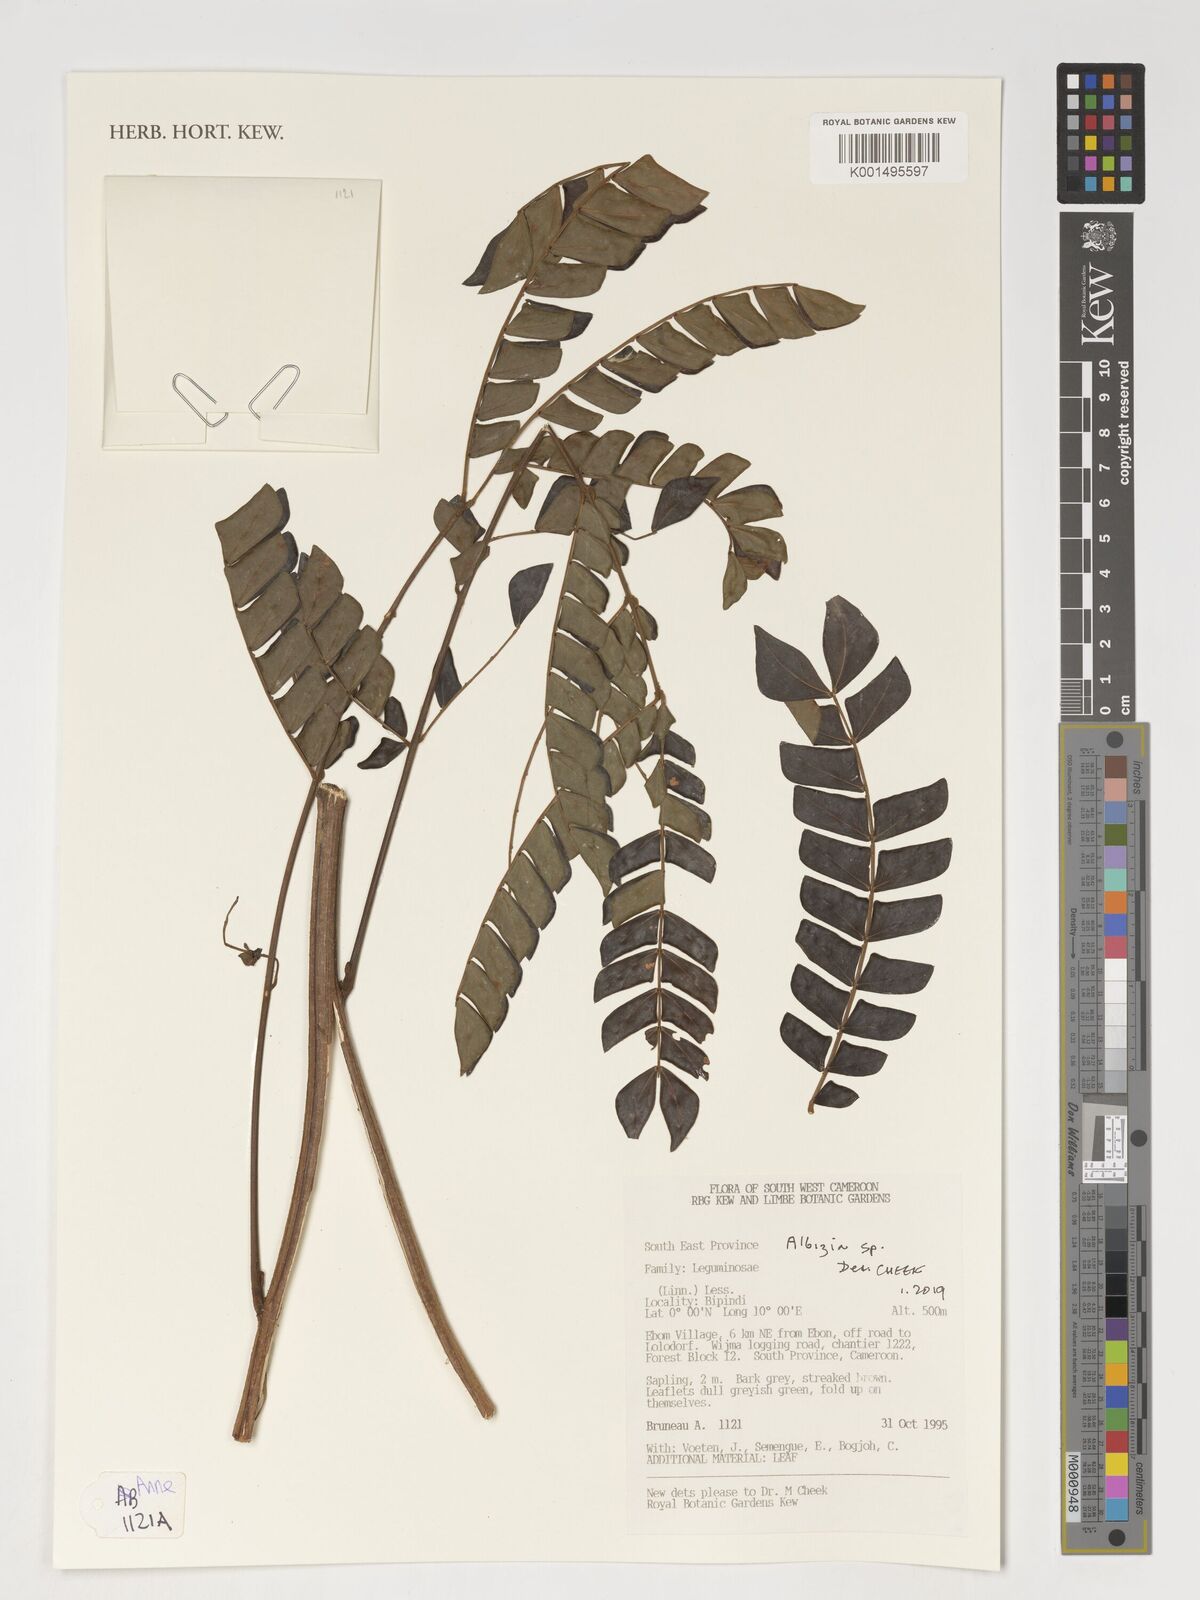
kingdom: Plantae
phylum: Tracheophyta
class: Magnoliopsida
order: Fabales
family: Fabaceae
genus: Albizia
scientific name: Albizia
